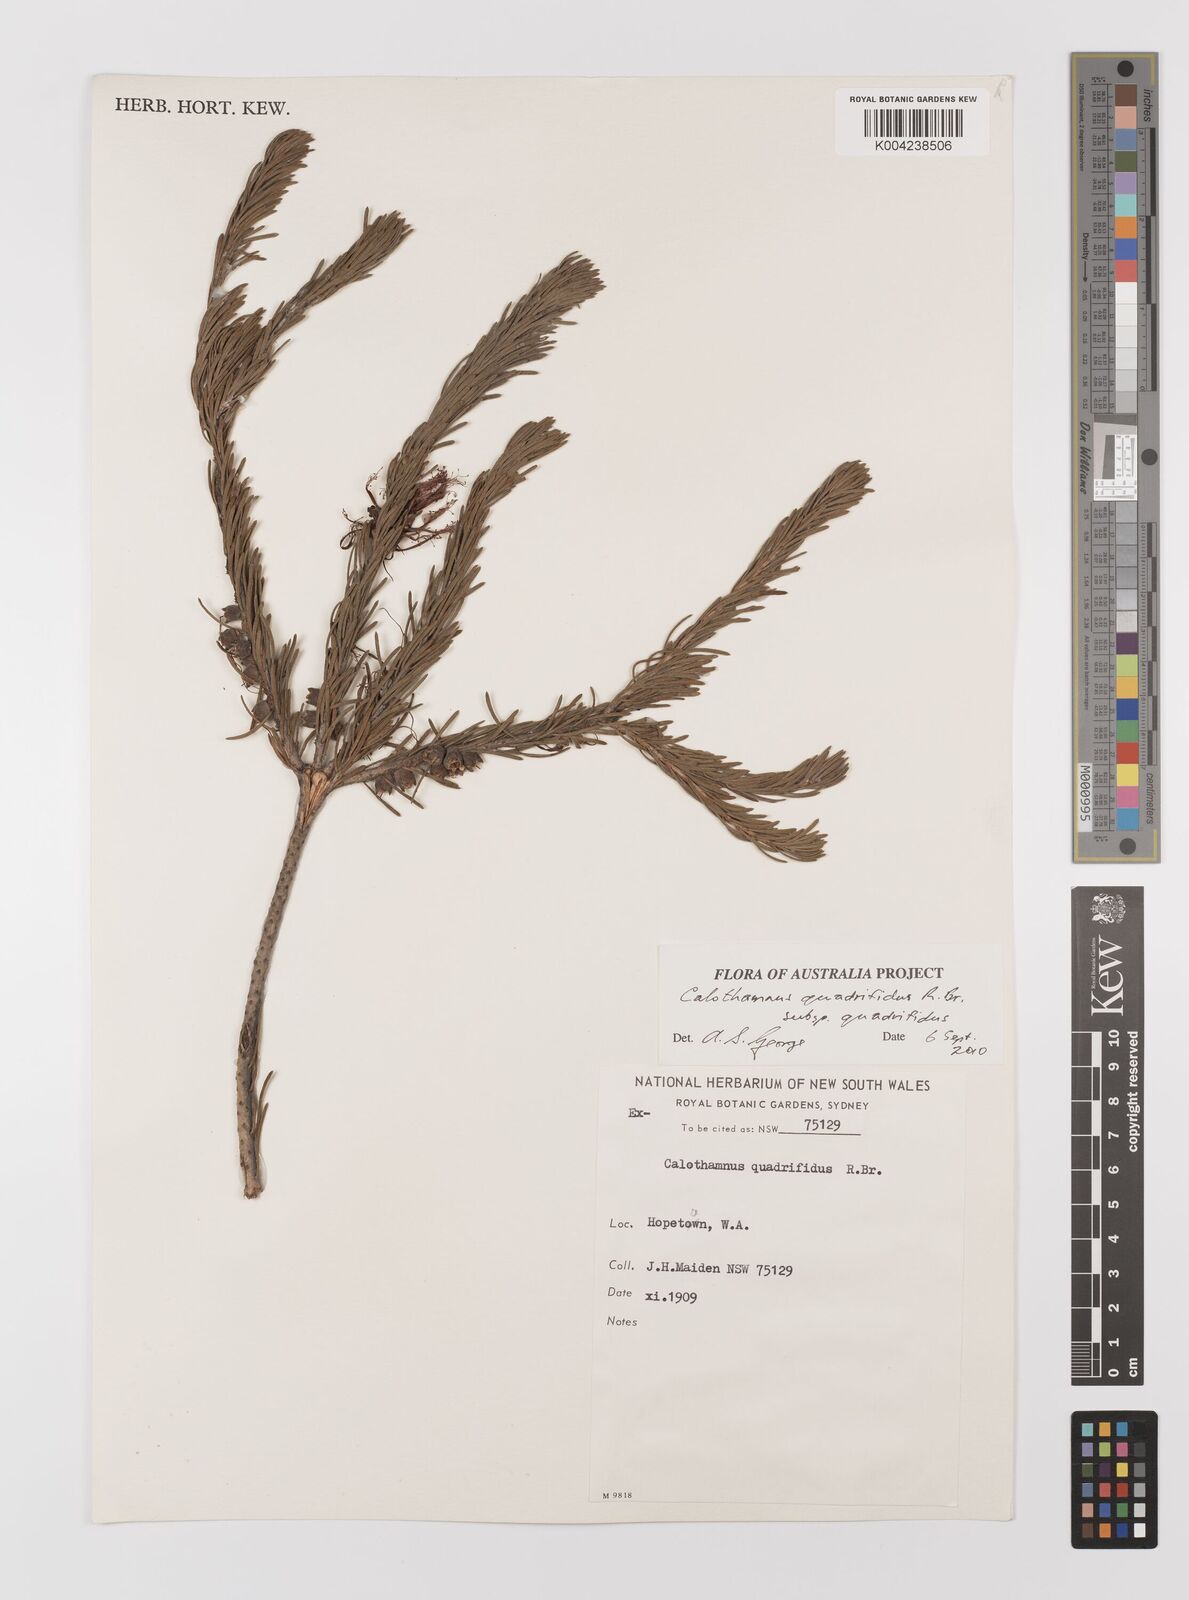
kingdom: Plantae
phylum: Tracheophyta
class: Magnoliopsida
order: Myrtales
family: Myrtaceae
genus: Melaleuca
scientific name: Melaleuca quadrifida
